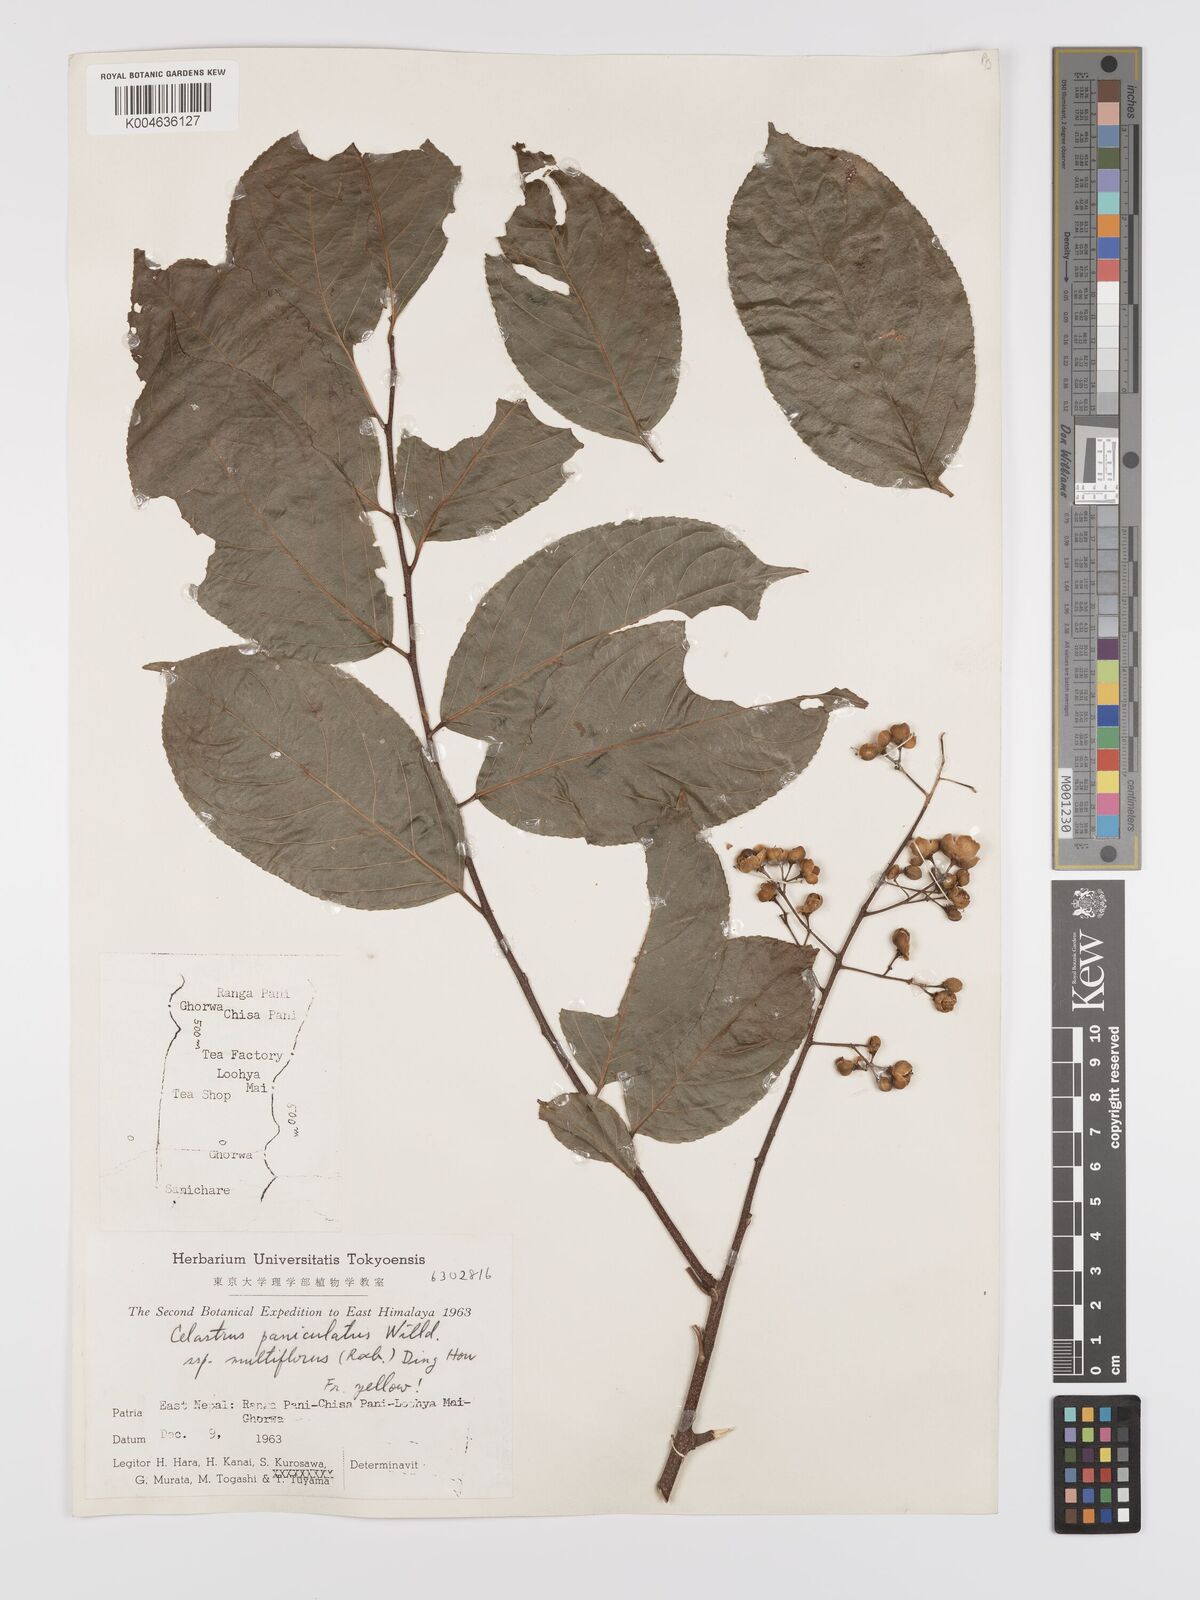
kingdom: Plantae
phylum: Tracheophyta
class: Magnoliopsida
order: Celastrales
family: Celastraceae
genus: Celastrus
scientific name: Celastrus paniculatus
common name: Oriental bittersweet; staff vine
